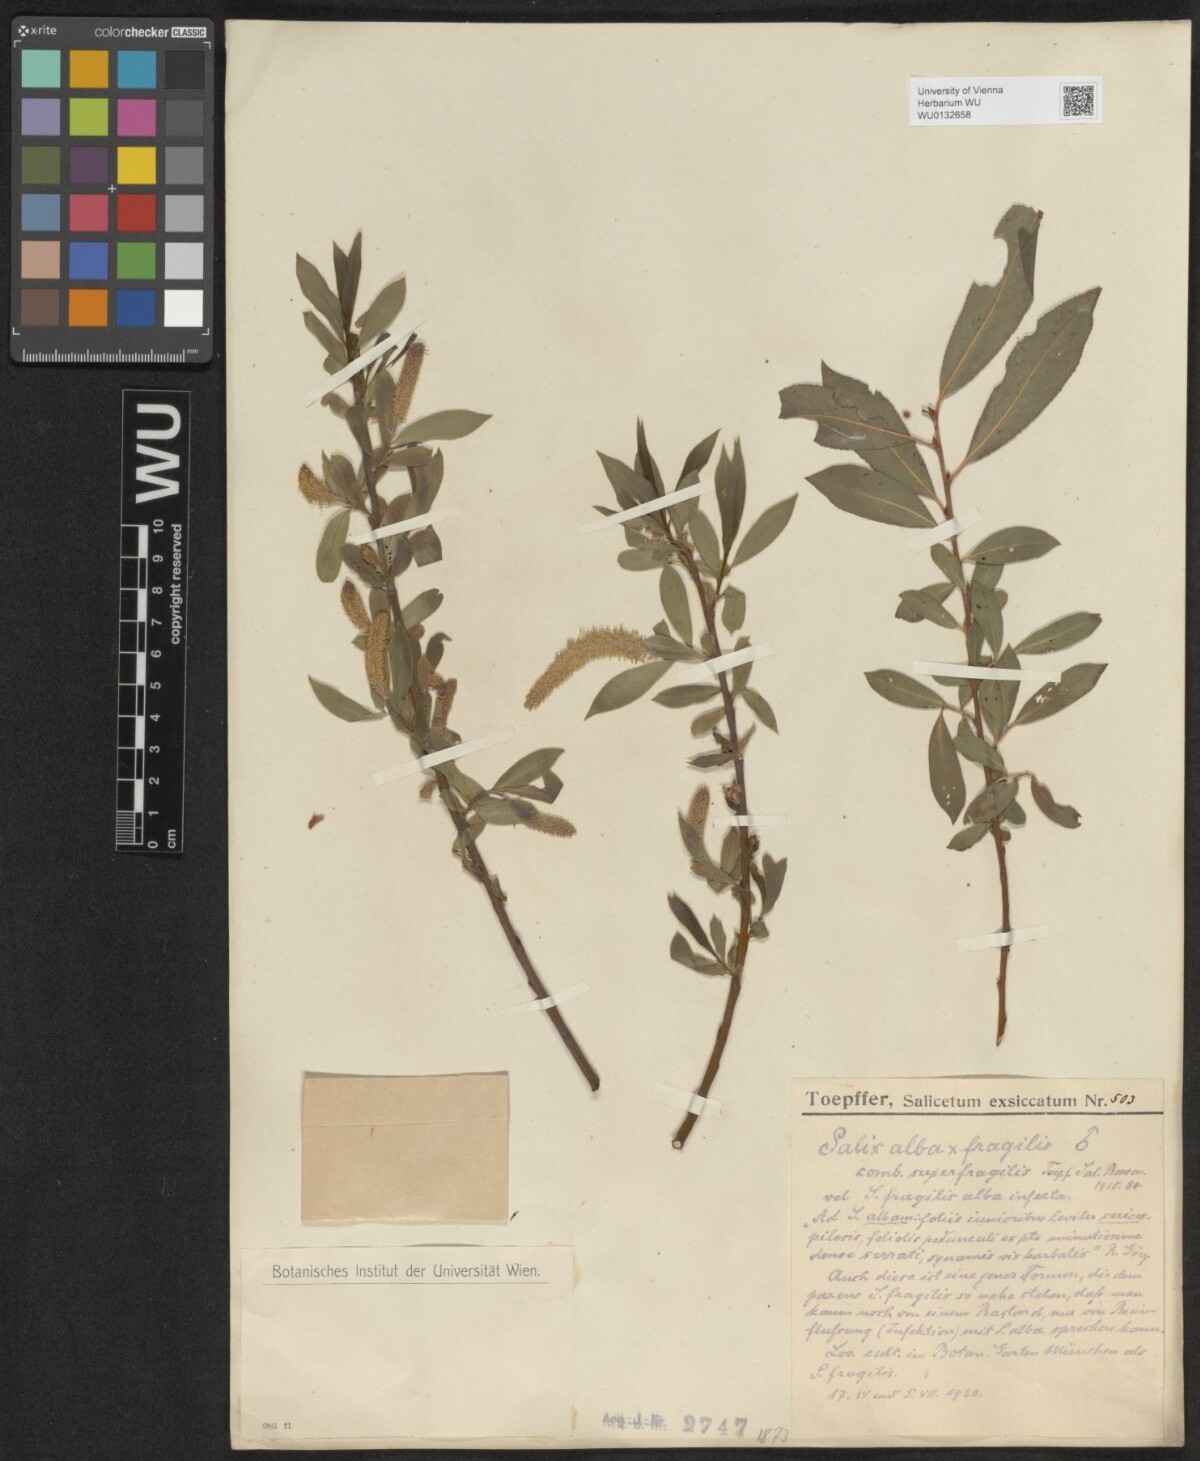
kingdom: Plantae
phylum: Tracheophyta
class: Magnoliopsida
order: Malpighiales
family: Salicaceae
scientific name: Salicaceae
